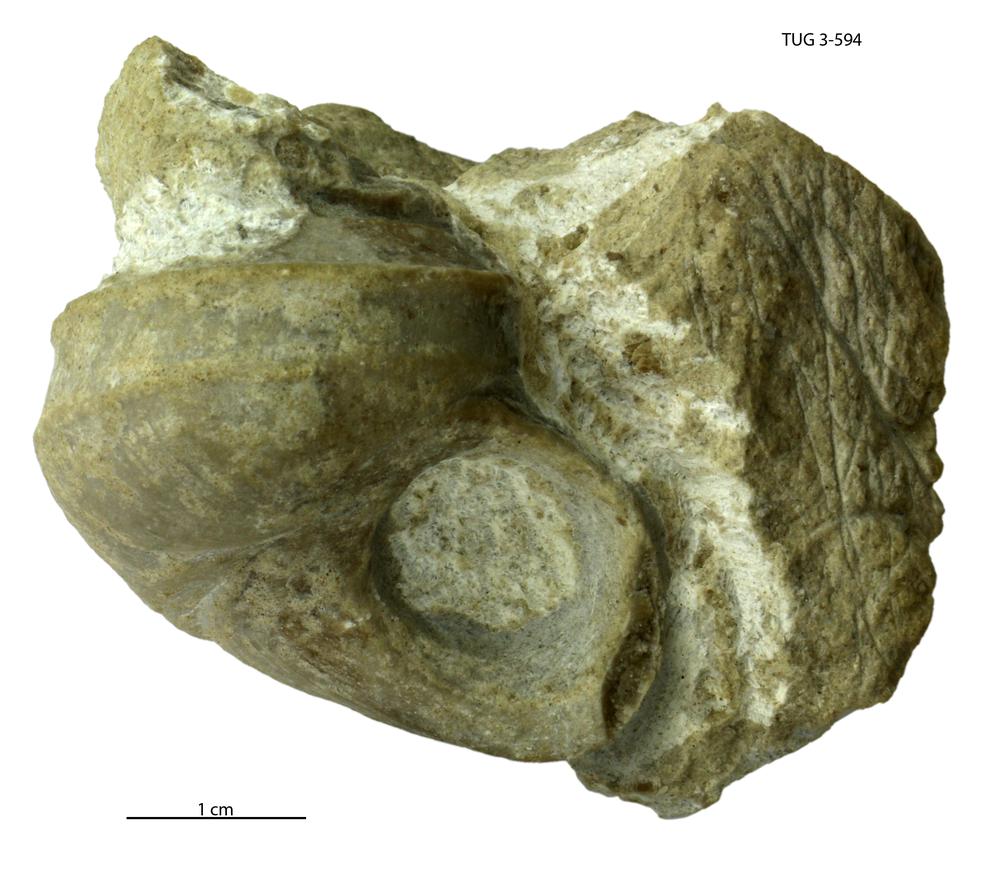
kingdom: Animalia
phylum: Mollusca
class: Gastropoda
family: Lophospiridae
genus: Ruedemannia
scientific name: Ruedemannia Worthenia tolli
